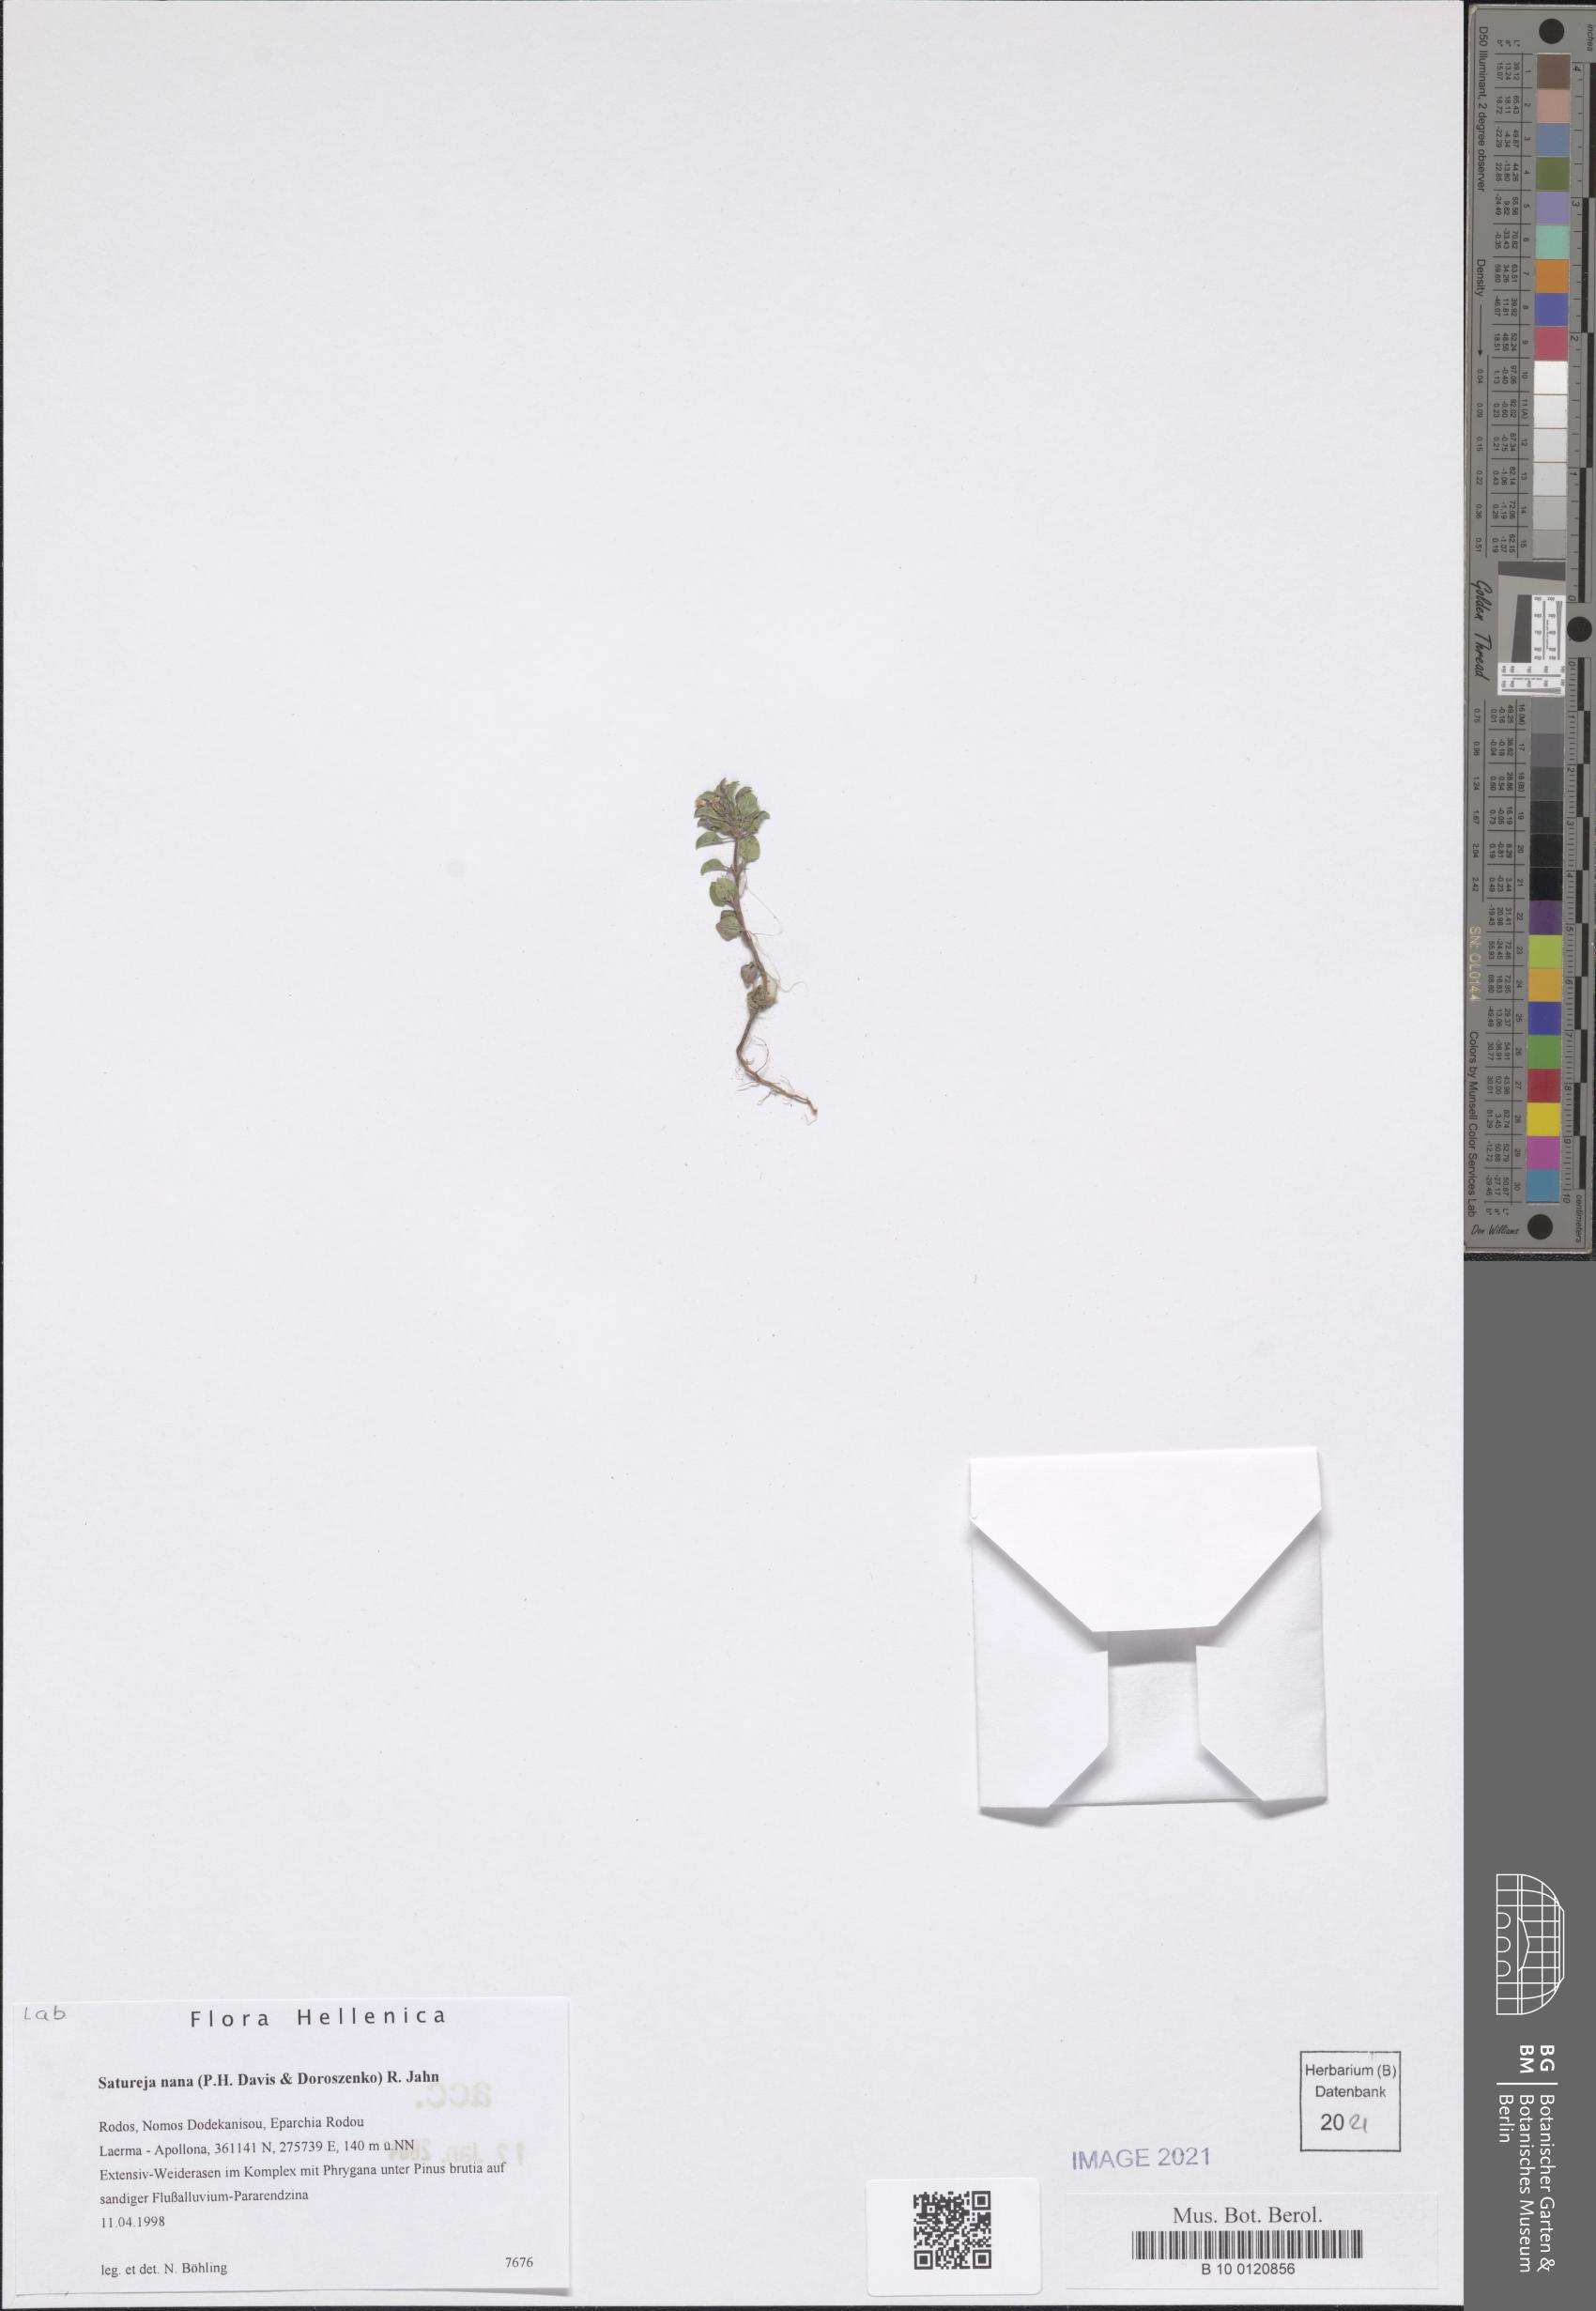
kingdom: Plantae
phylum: Tracheophyta
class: Magnoliopsida
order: Lamiales
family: Lamiaceae
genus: Clinopodium
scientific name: Clinopodium nanum
